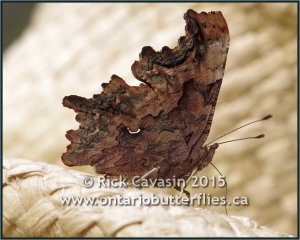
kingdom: Animalia
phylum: Arthropoda
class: Insecta
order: Lepidoptera
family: Nymphalidae
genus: Polygonia
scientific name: Polygonia faunus
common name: Green Comma
